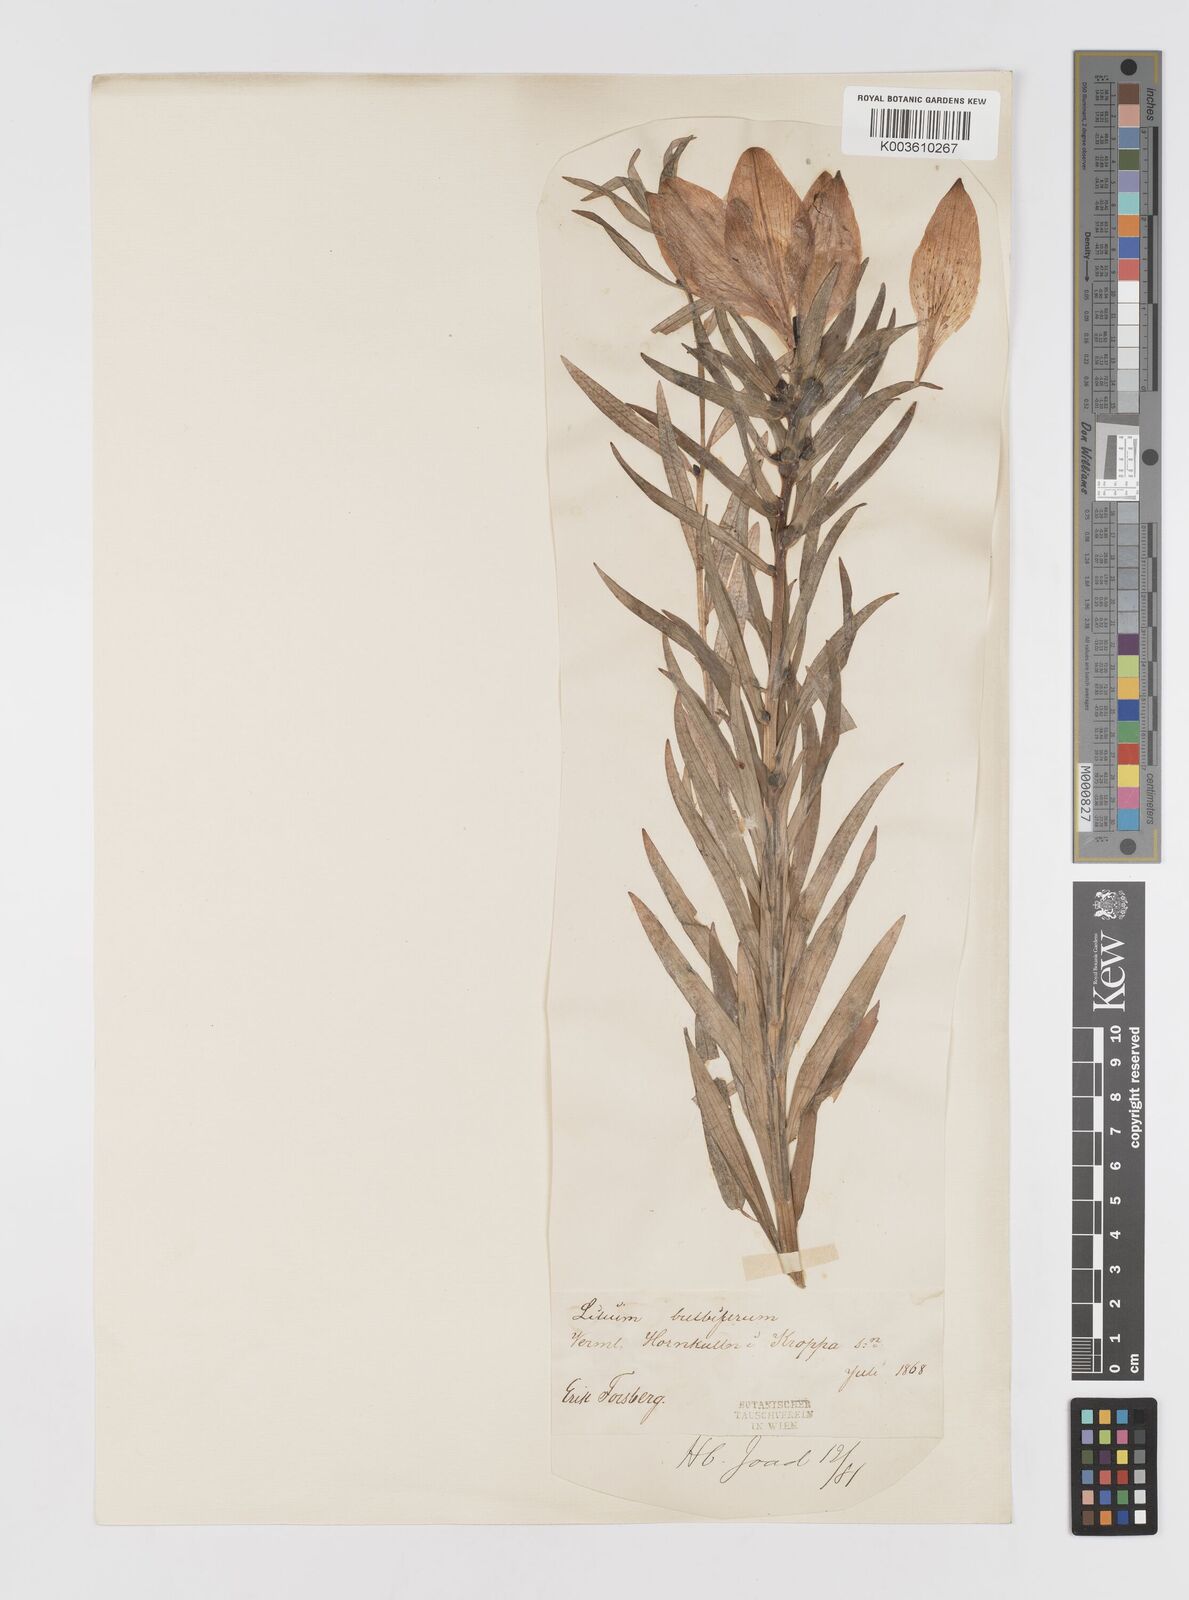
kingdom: Plantae
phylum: Tracheophyta
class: Liliopsida
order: Liliales
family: Liliaceae
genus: Lilium
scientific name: Lilium bulbiferum
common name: Orange lily
